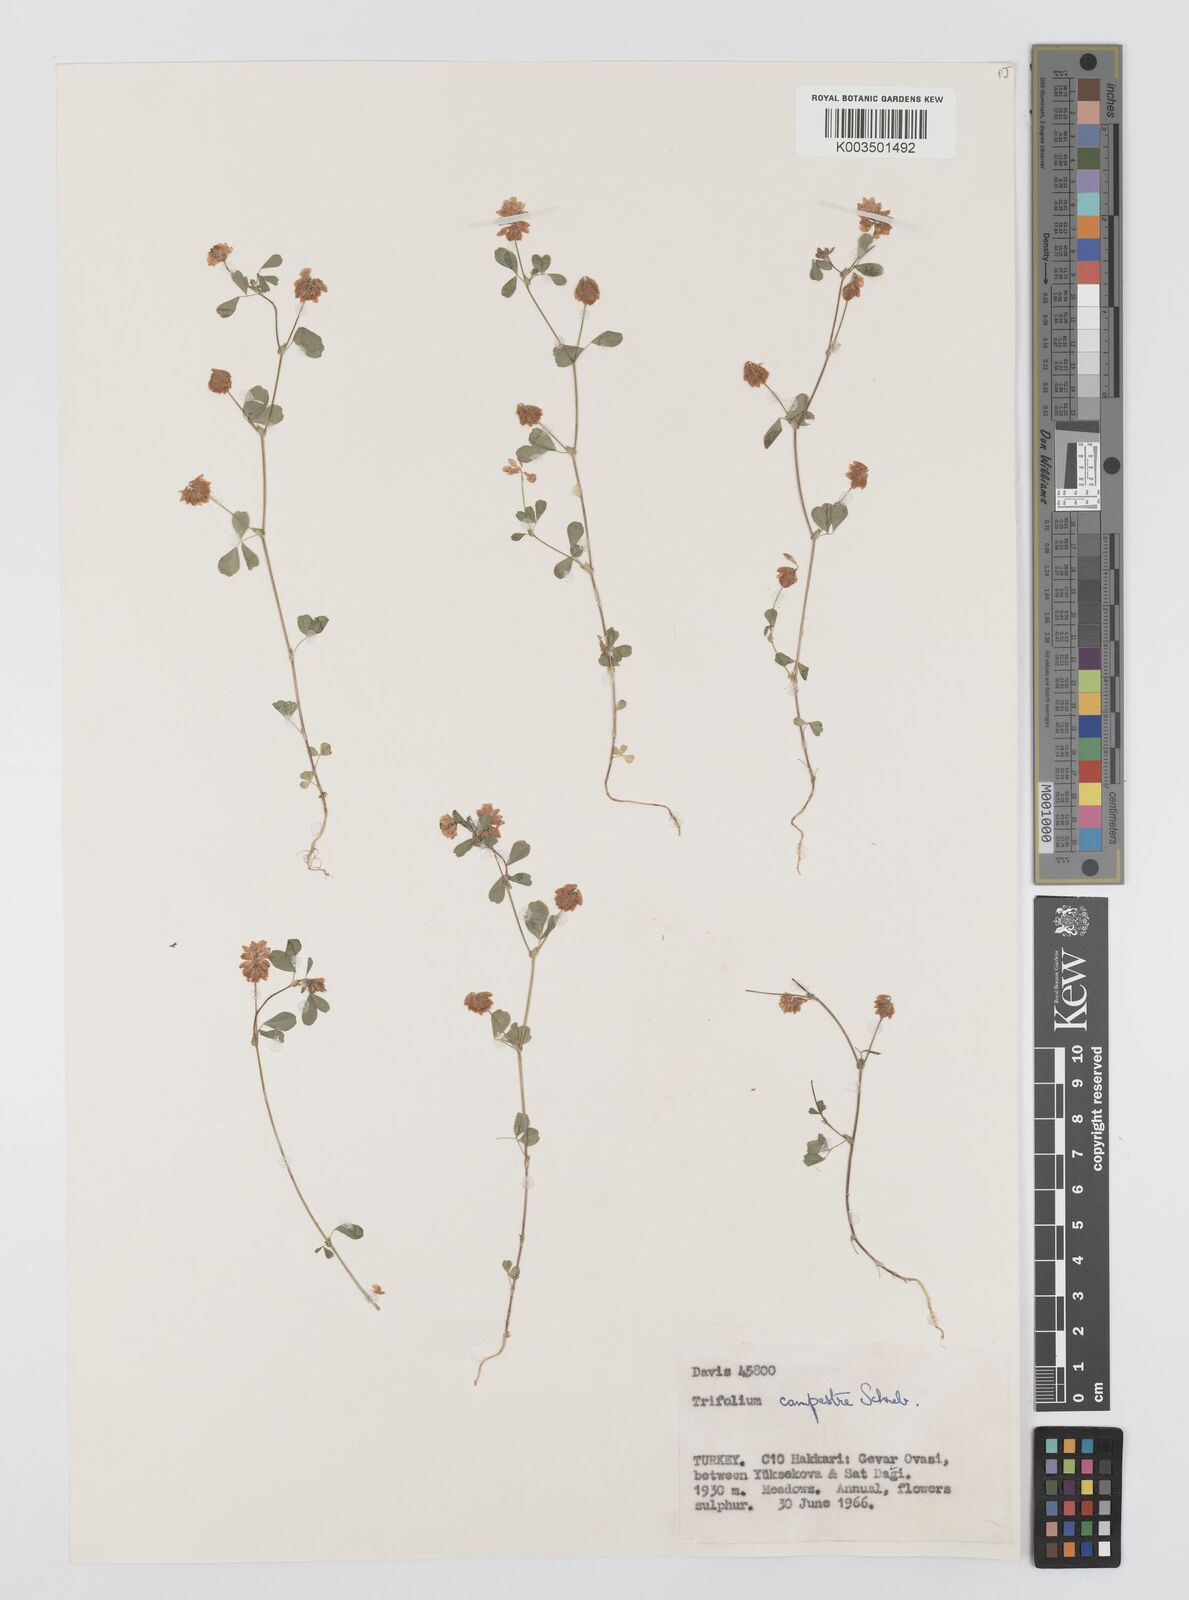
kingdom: Plantae
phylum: Tracheophyta
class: Magnoliopsida
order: Fabales
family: Fabaceae
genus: Trifolium
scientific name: Trifolium campestre
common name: Field clover
